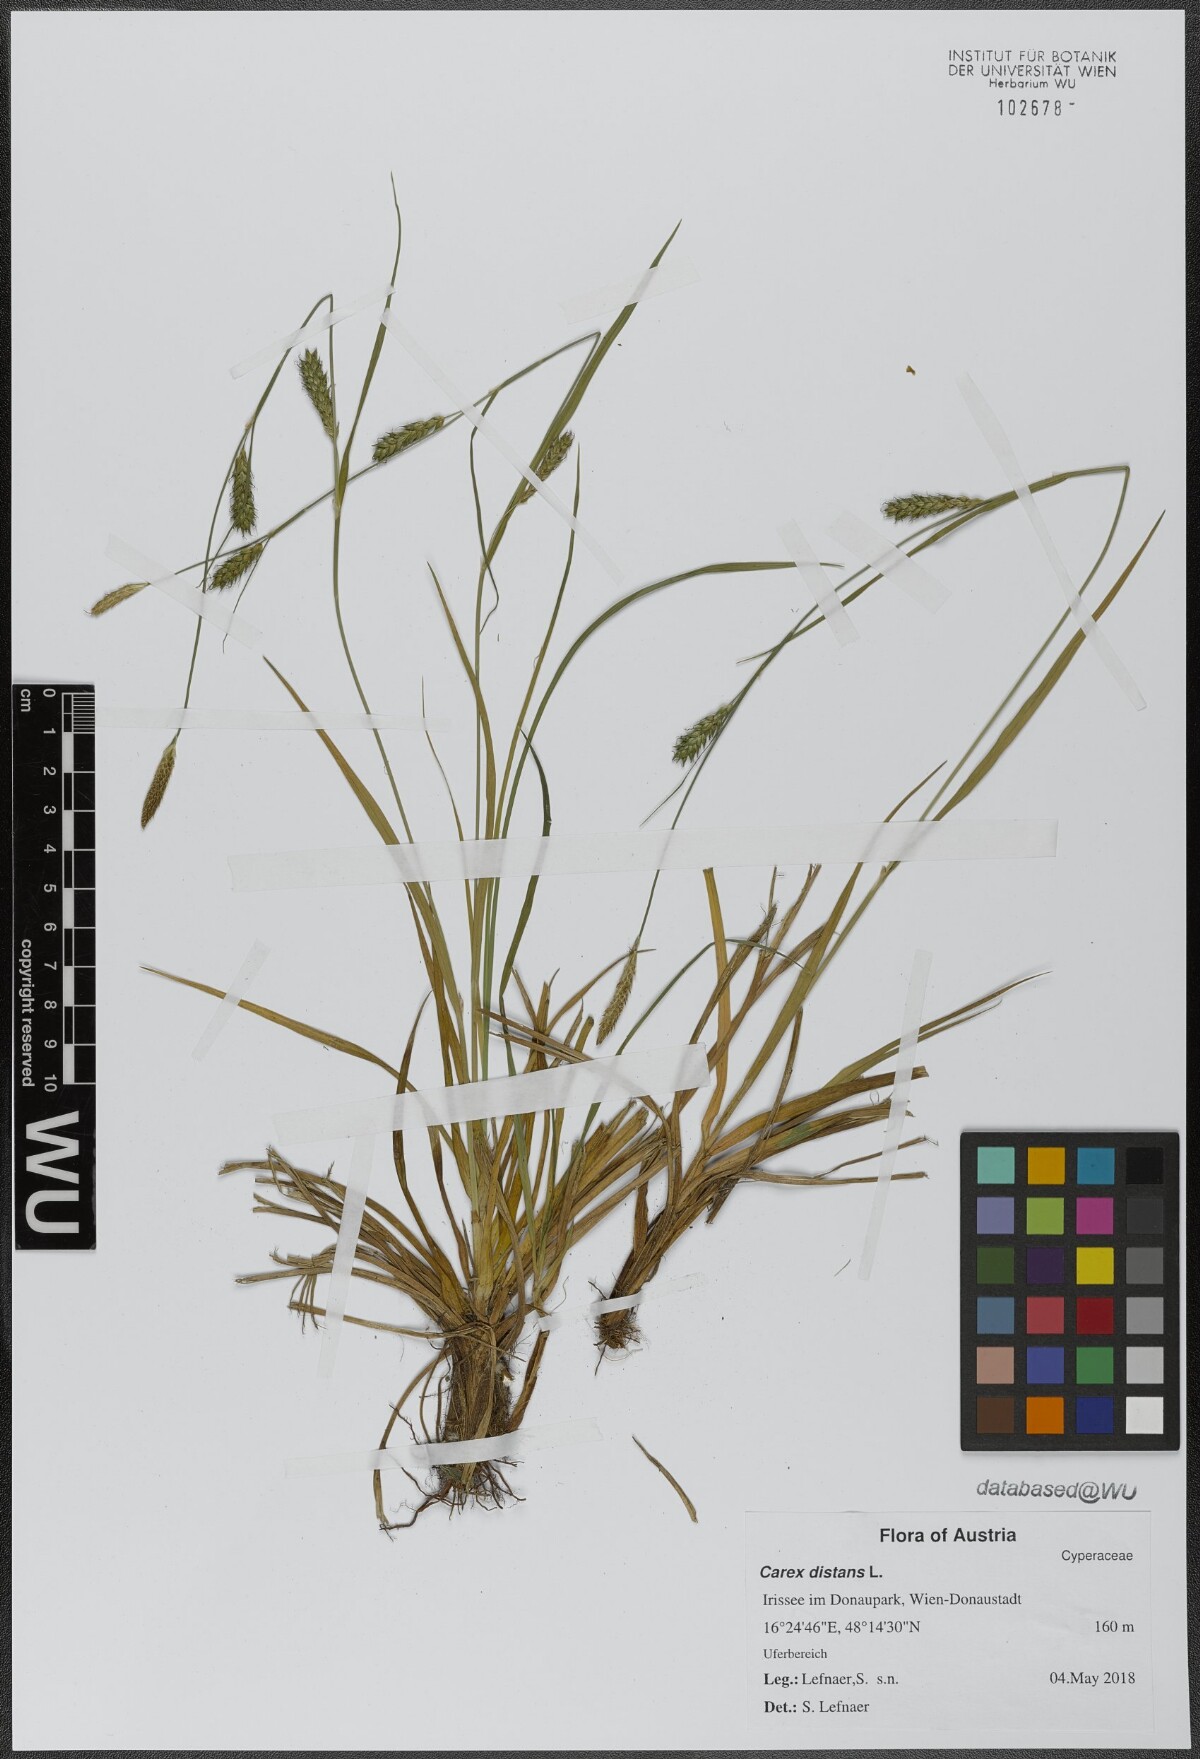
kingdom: Plantae
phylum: Tracheophyta
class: Liliopsida
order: Poales
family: Cyperaceae
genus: Carex
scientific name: Carex distans
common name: Distant sedge
